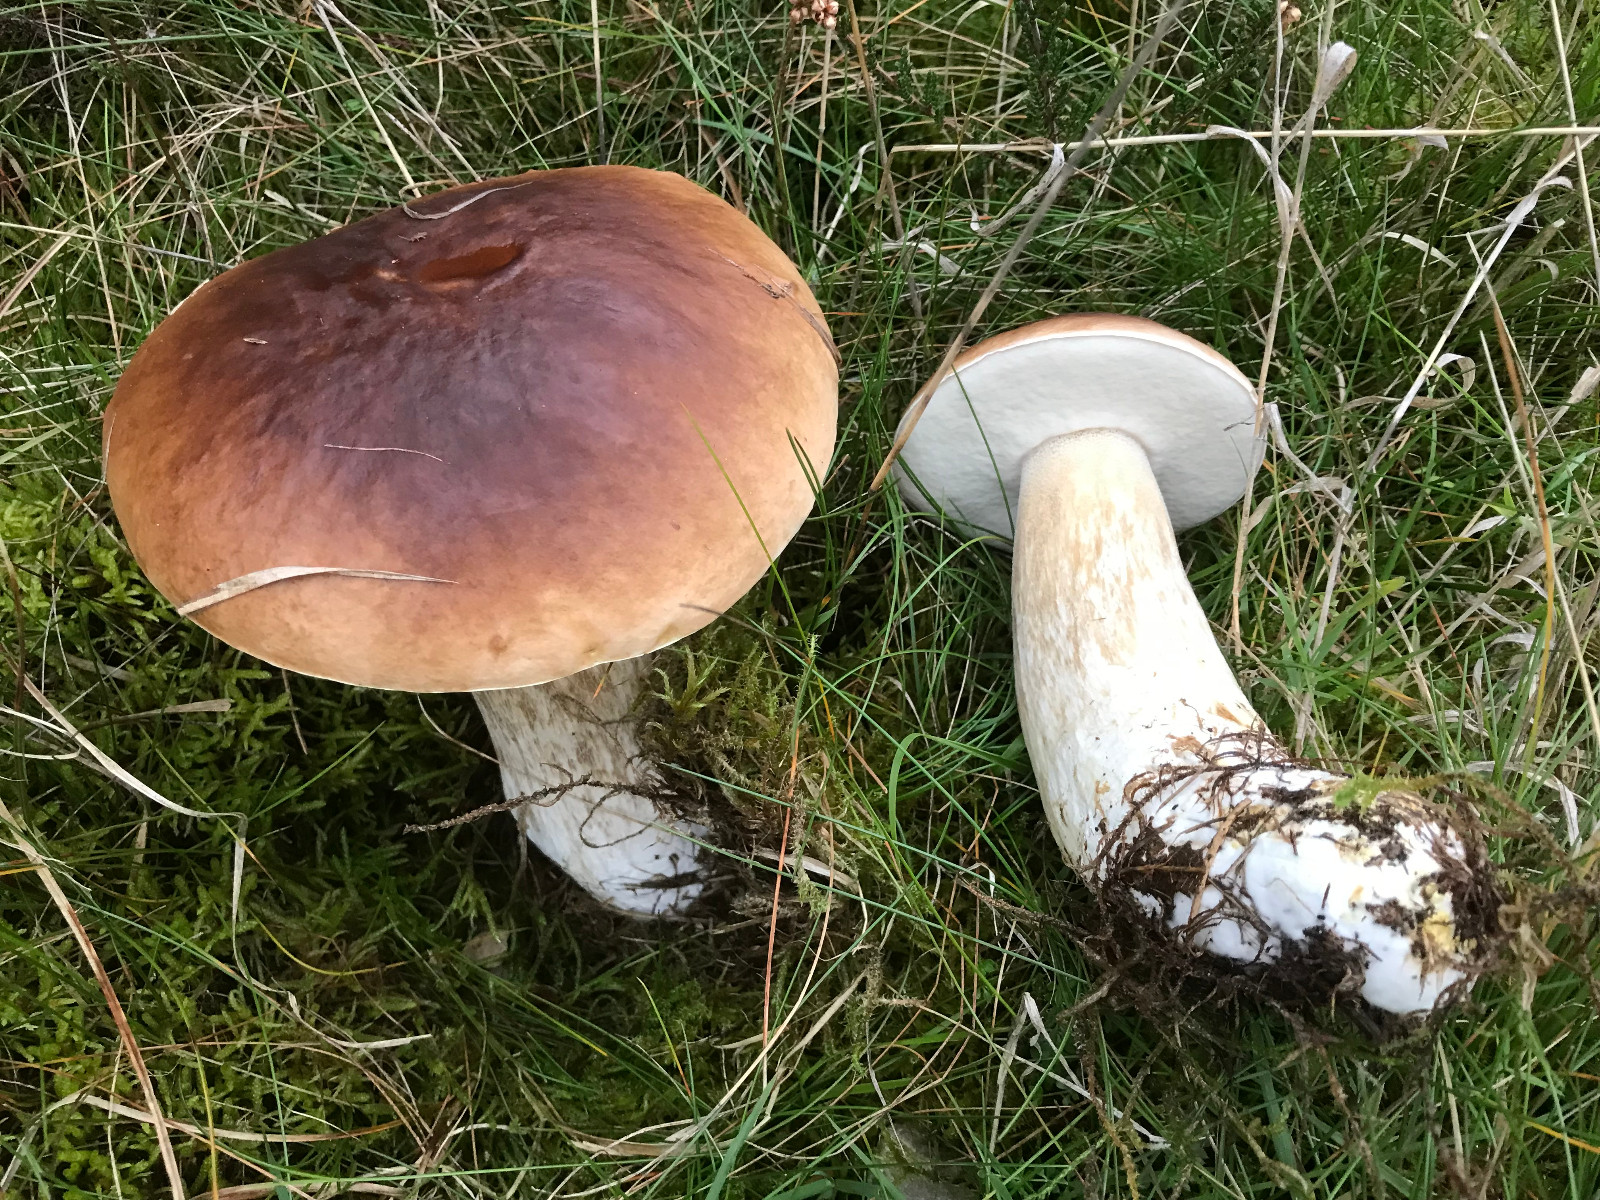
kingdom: Fungi
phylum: Basidiomycota
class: Agaricomycetes
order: Boletales
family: Boletaceae
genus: Boletus
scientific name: Boletus edulis
